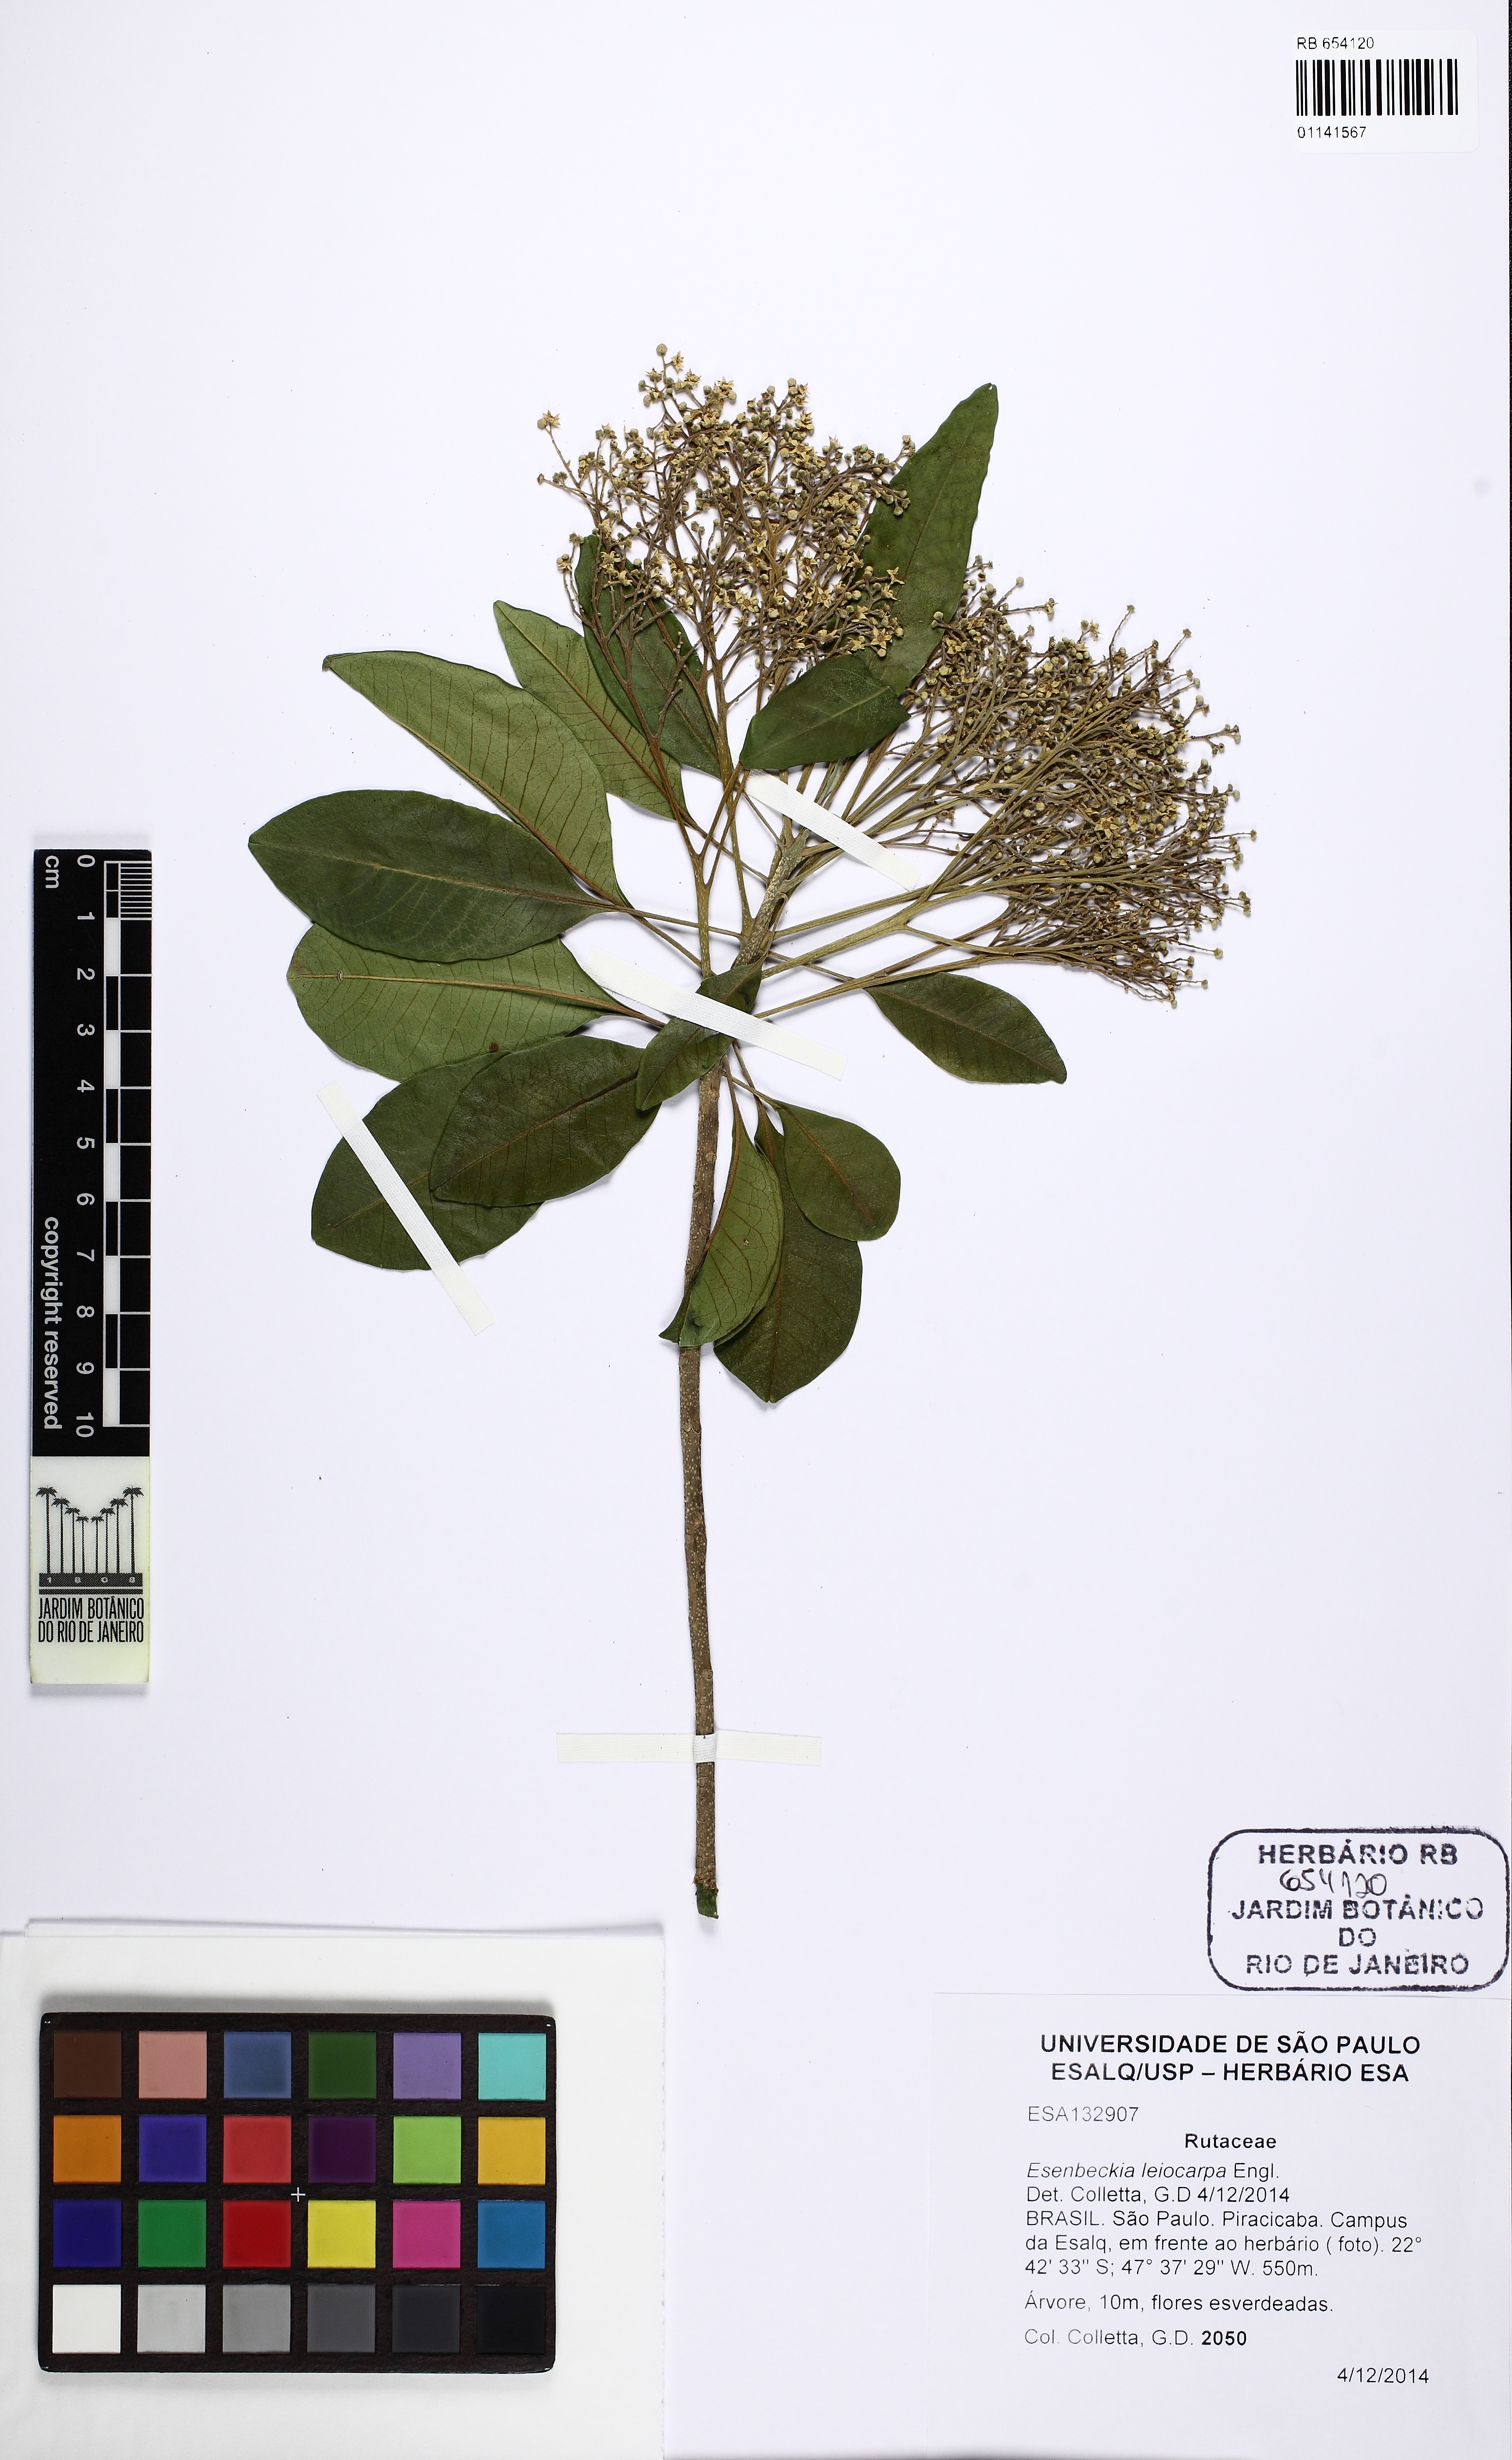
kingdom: Plantae
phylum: Tracheophyta
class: Magnoliopsida
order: Sapindales
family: Rutaceae
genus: Esenbeckia
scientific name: Esenbeckia leiocarpa
